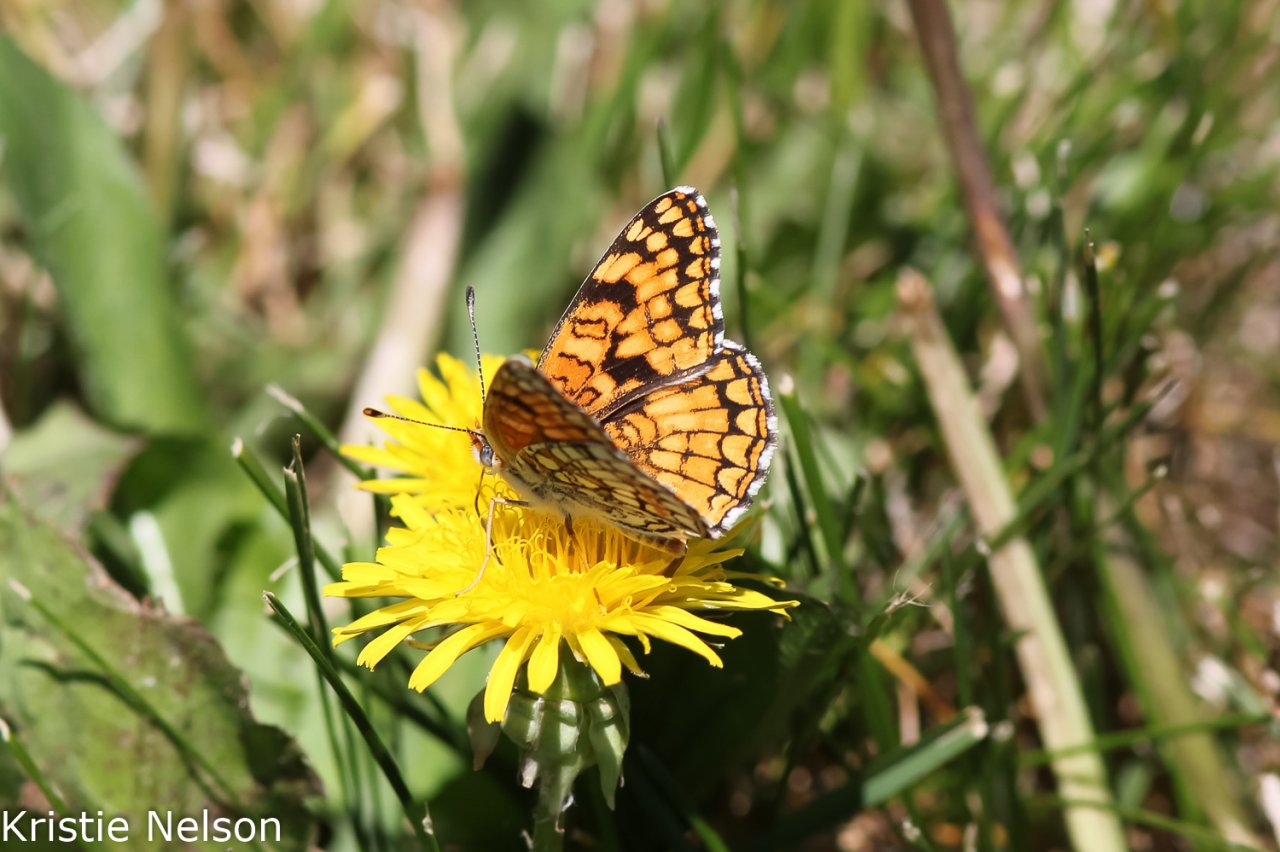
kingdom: Animalia
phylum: Arthropoda
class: Insecta
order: Lepidoptera
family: Nymphalidae
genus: Chlosyne
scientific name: Chlosyne acastus
